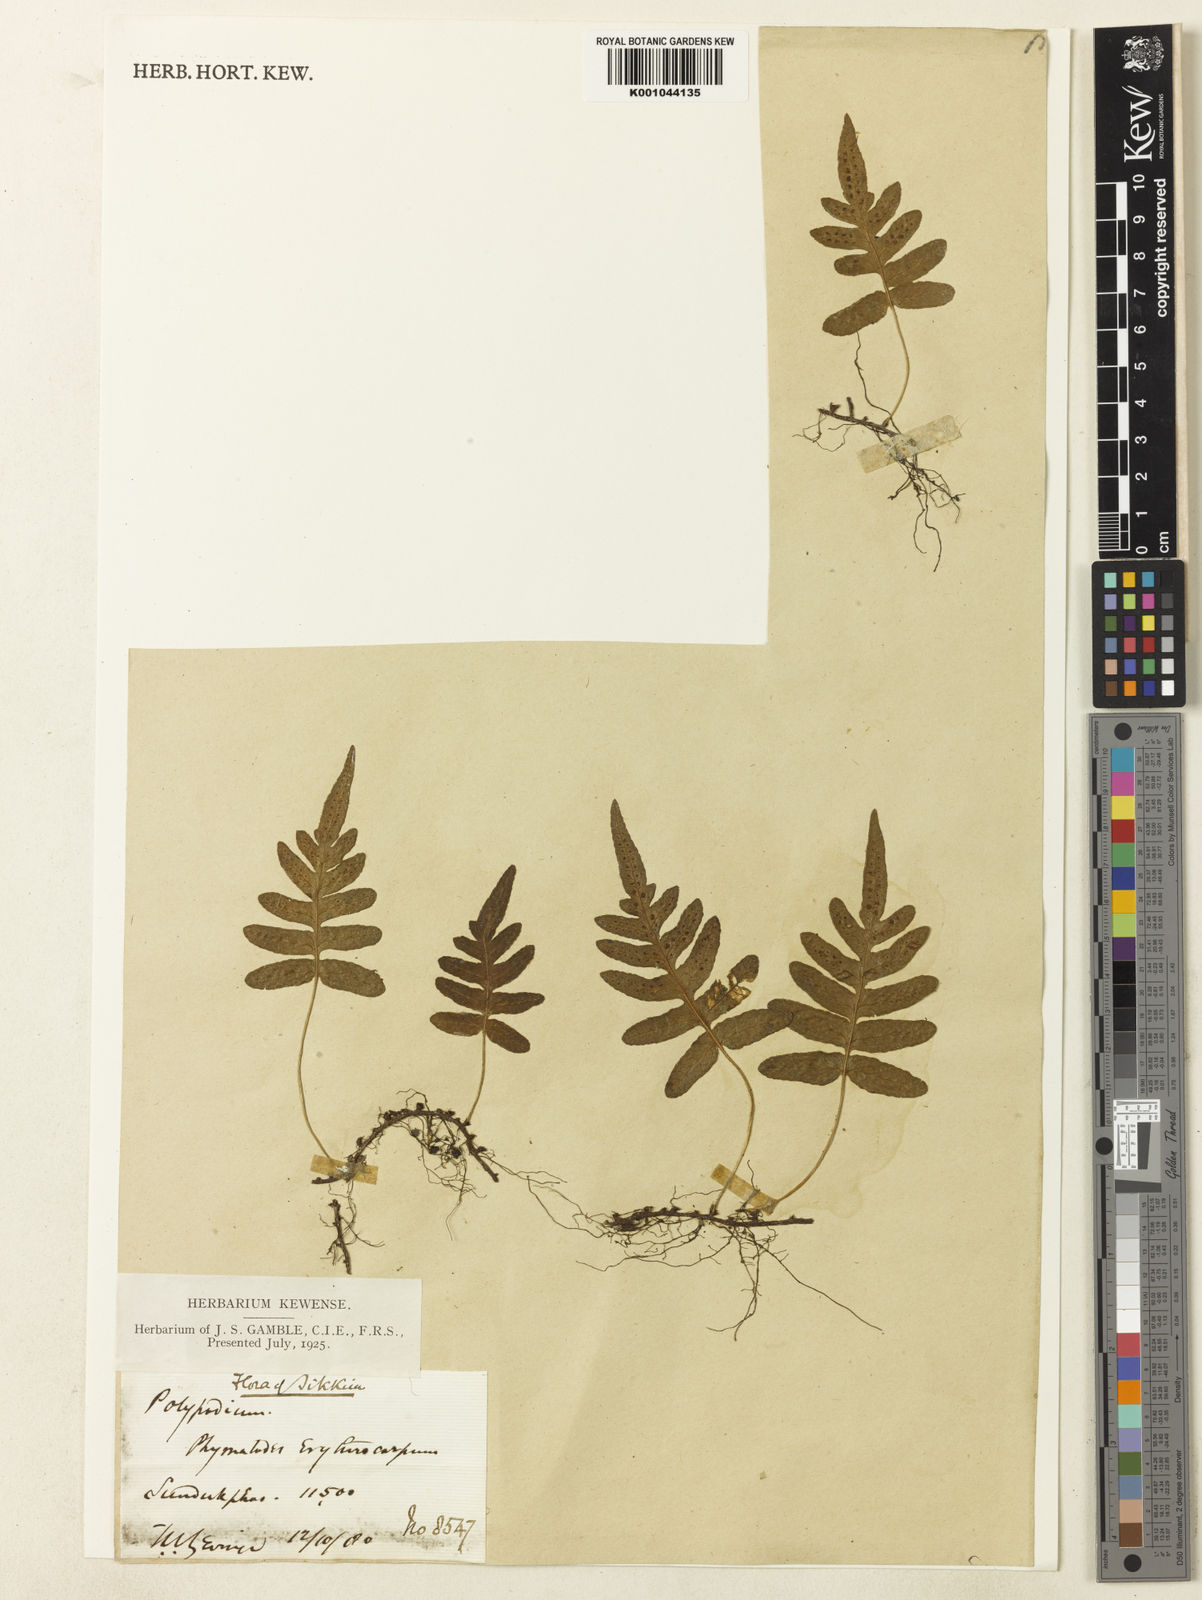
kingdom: Plantae
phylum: Tracheophyta
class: Polypodiopsida
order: Polypodiales
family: Polypodiaceae
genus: Selliguea
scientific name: Selliguea erythrocarpa
